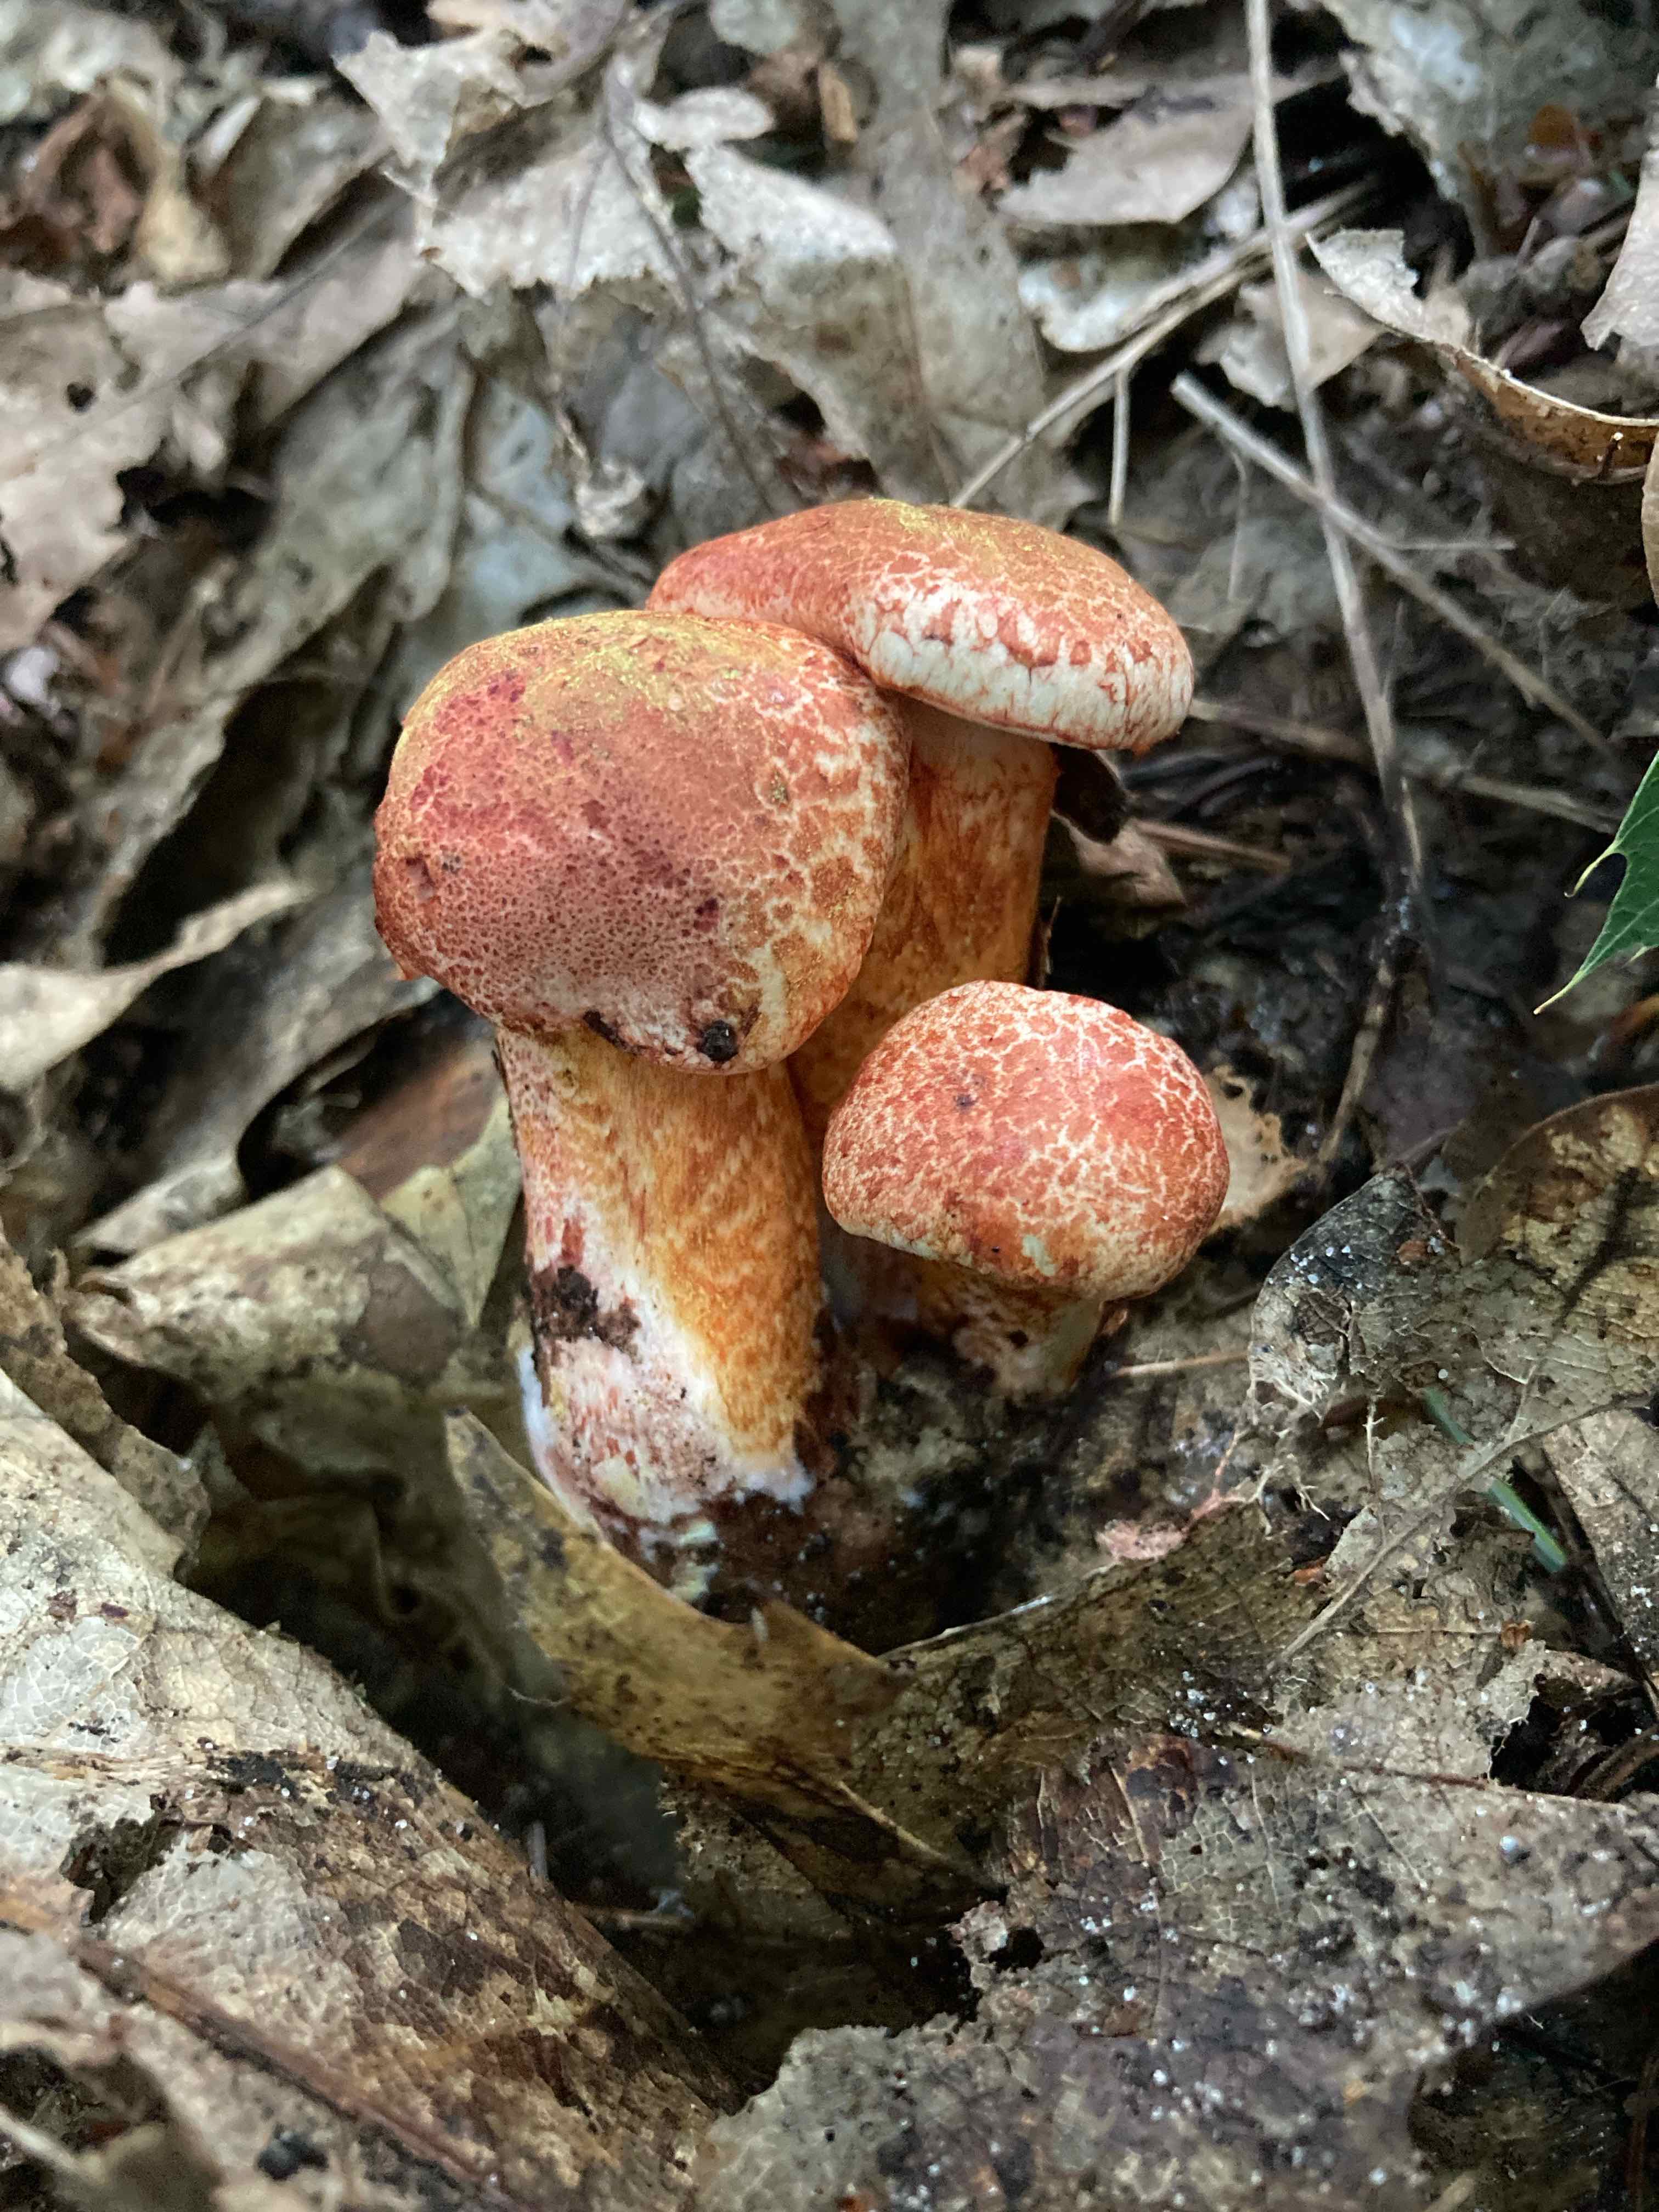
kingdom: Fungi
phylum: Basidiomycota
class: Agaricomycetes
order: Agaricales
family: Cortinariaceae
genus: Cortinarius
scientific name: Cortinarius bolaris
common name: cinnoberskællet slørhat
